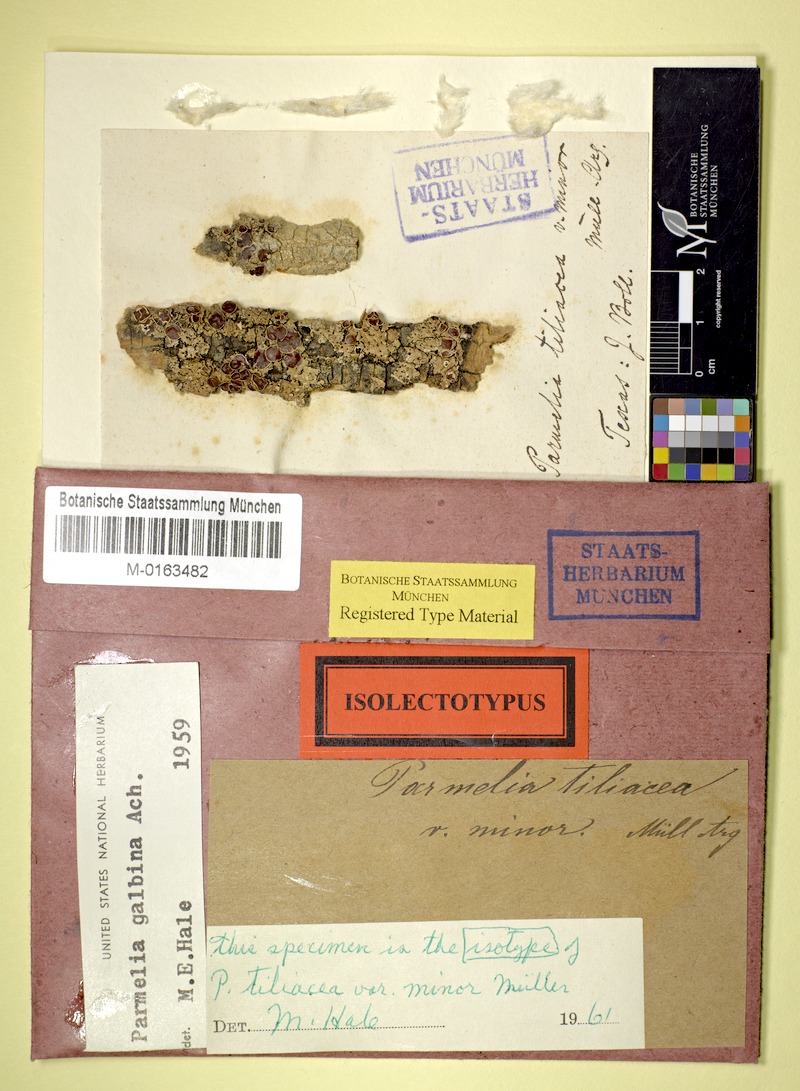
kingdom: Fungi
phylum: Ascomycota
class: Lecanoromycetes
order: Lecanorales
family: Parmeliaceae
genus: Myelochroa
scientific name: Myelochroa galbina
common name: Smooth axil-bristle lichen
